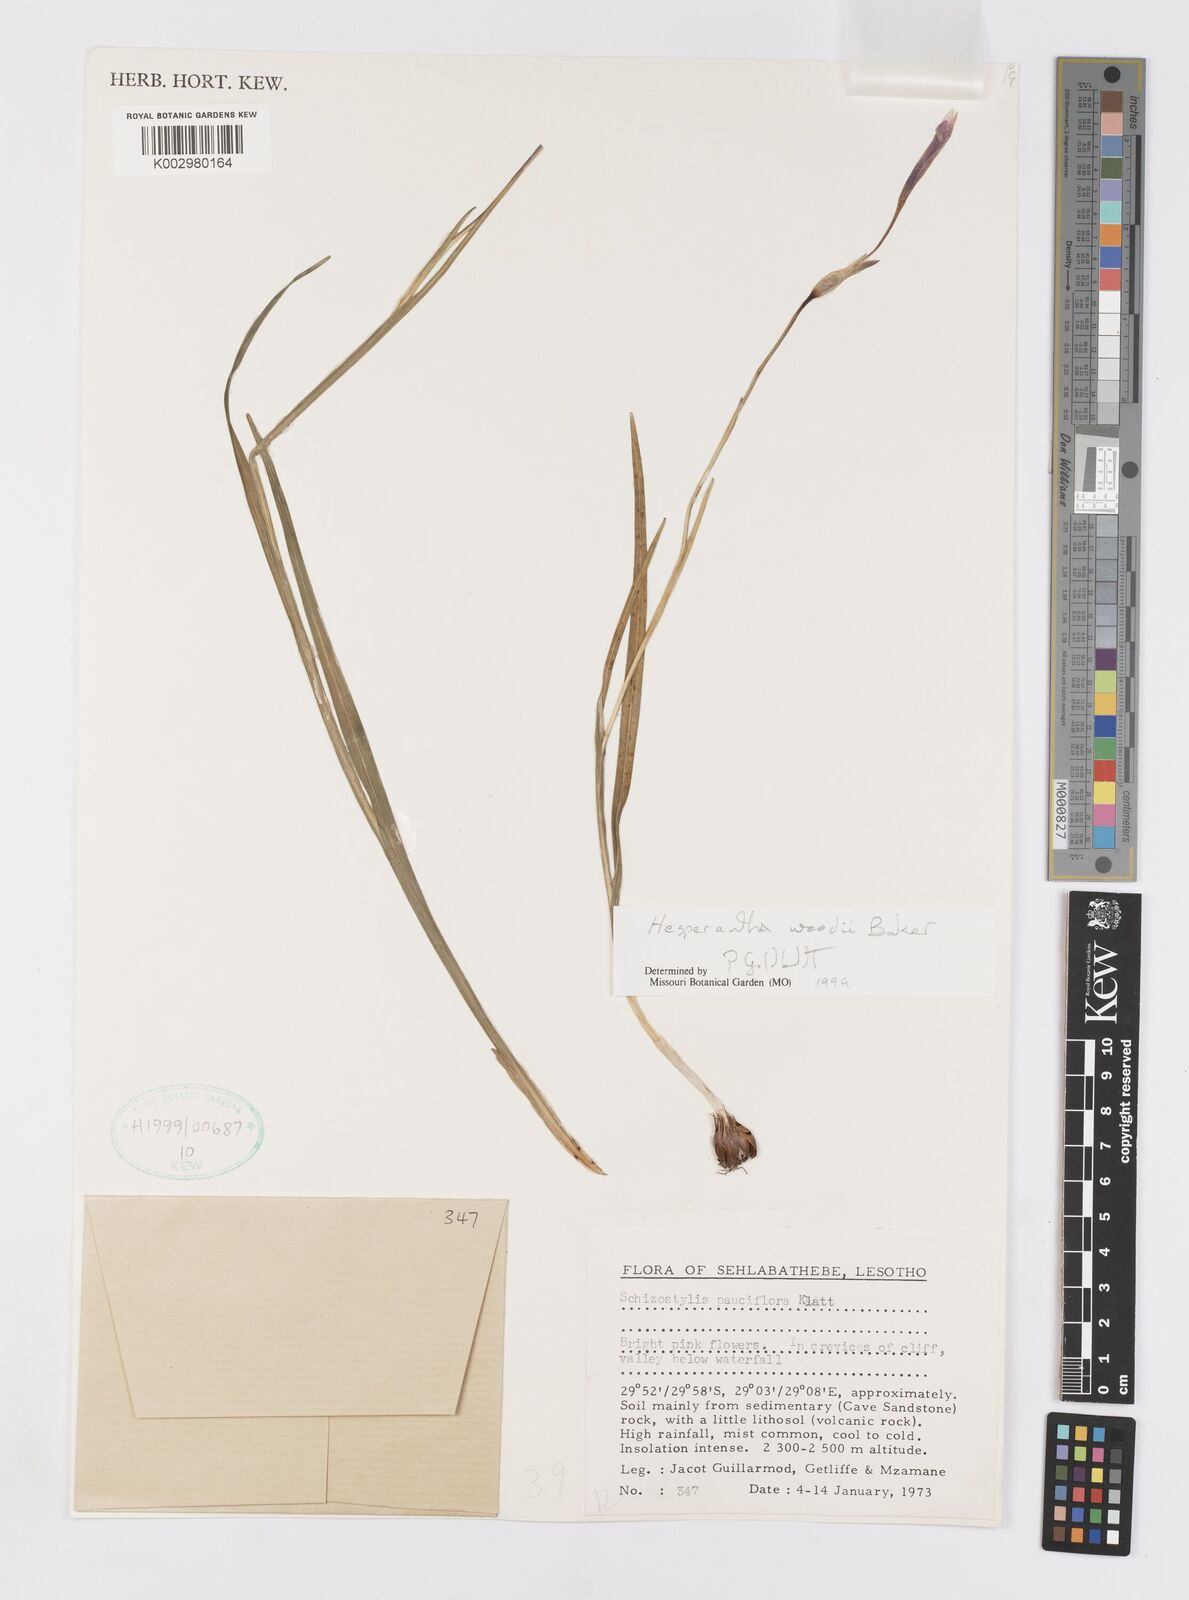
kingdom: Plantae
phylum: Tracheophyta
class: Liliopsida
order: Asparagales
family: Iridaceae
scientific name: Iridaceae
